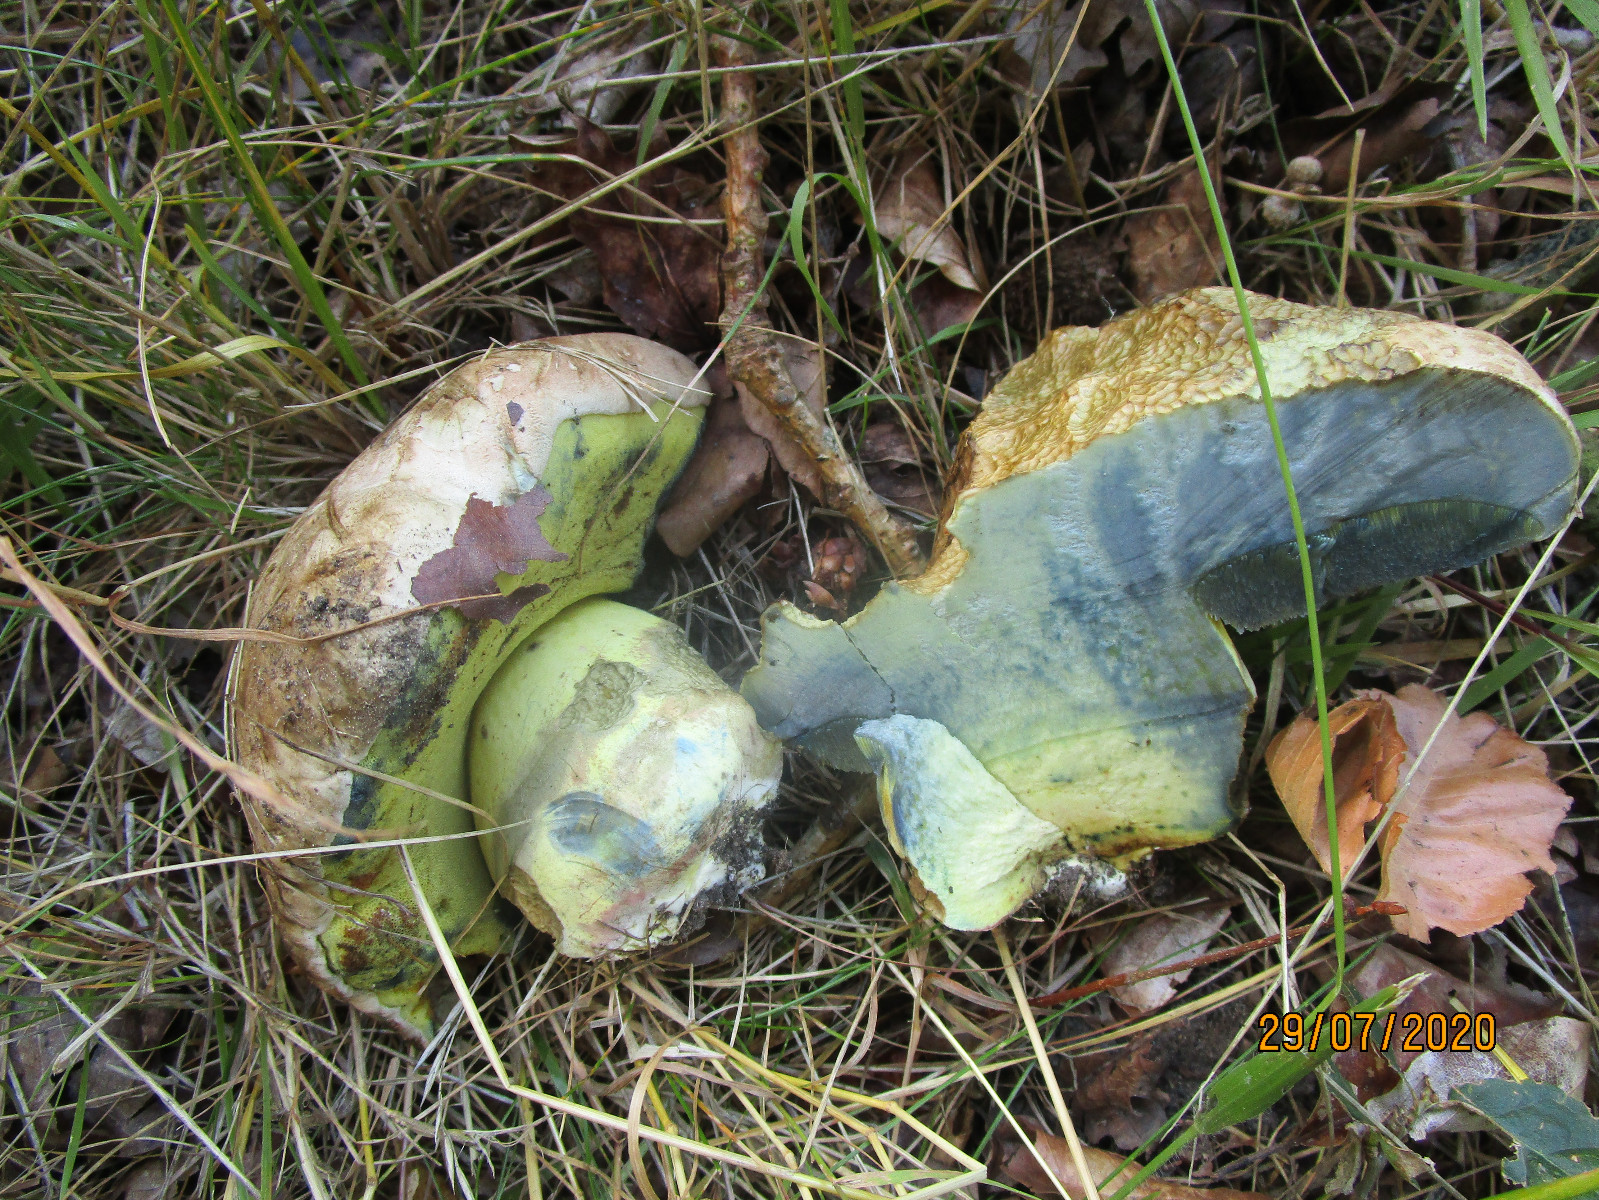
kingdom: Fungi
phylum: Basidiomycota
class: Agaricomycetes
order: Boletales
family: Boletaceae
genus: Caloboletus
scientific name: Caloboletus radicans
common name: rod-rørhat
